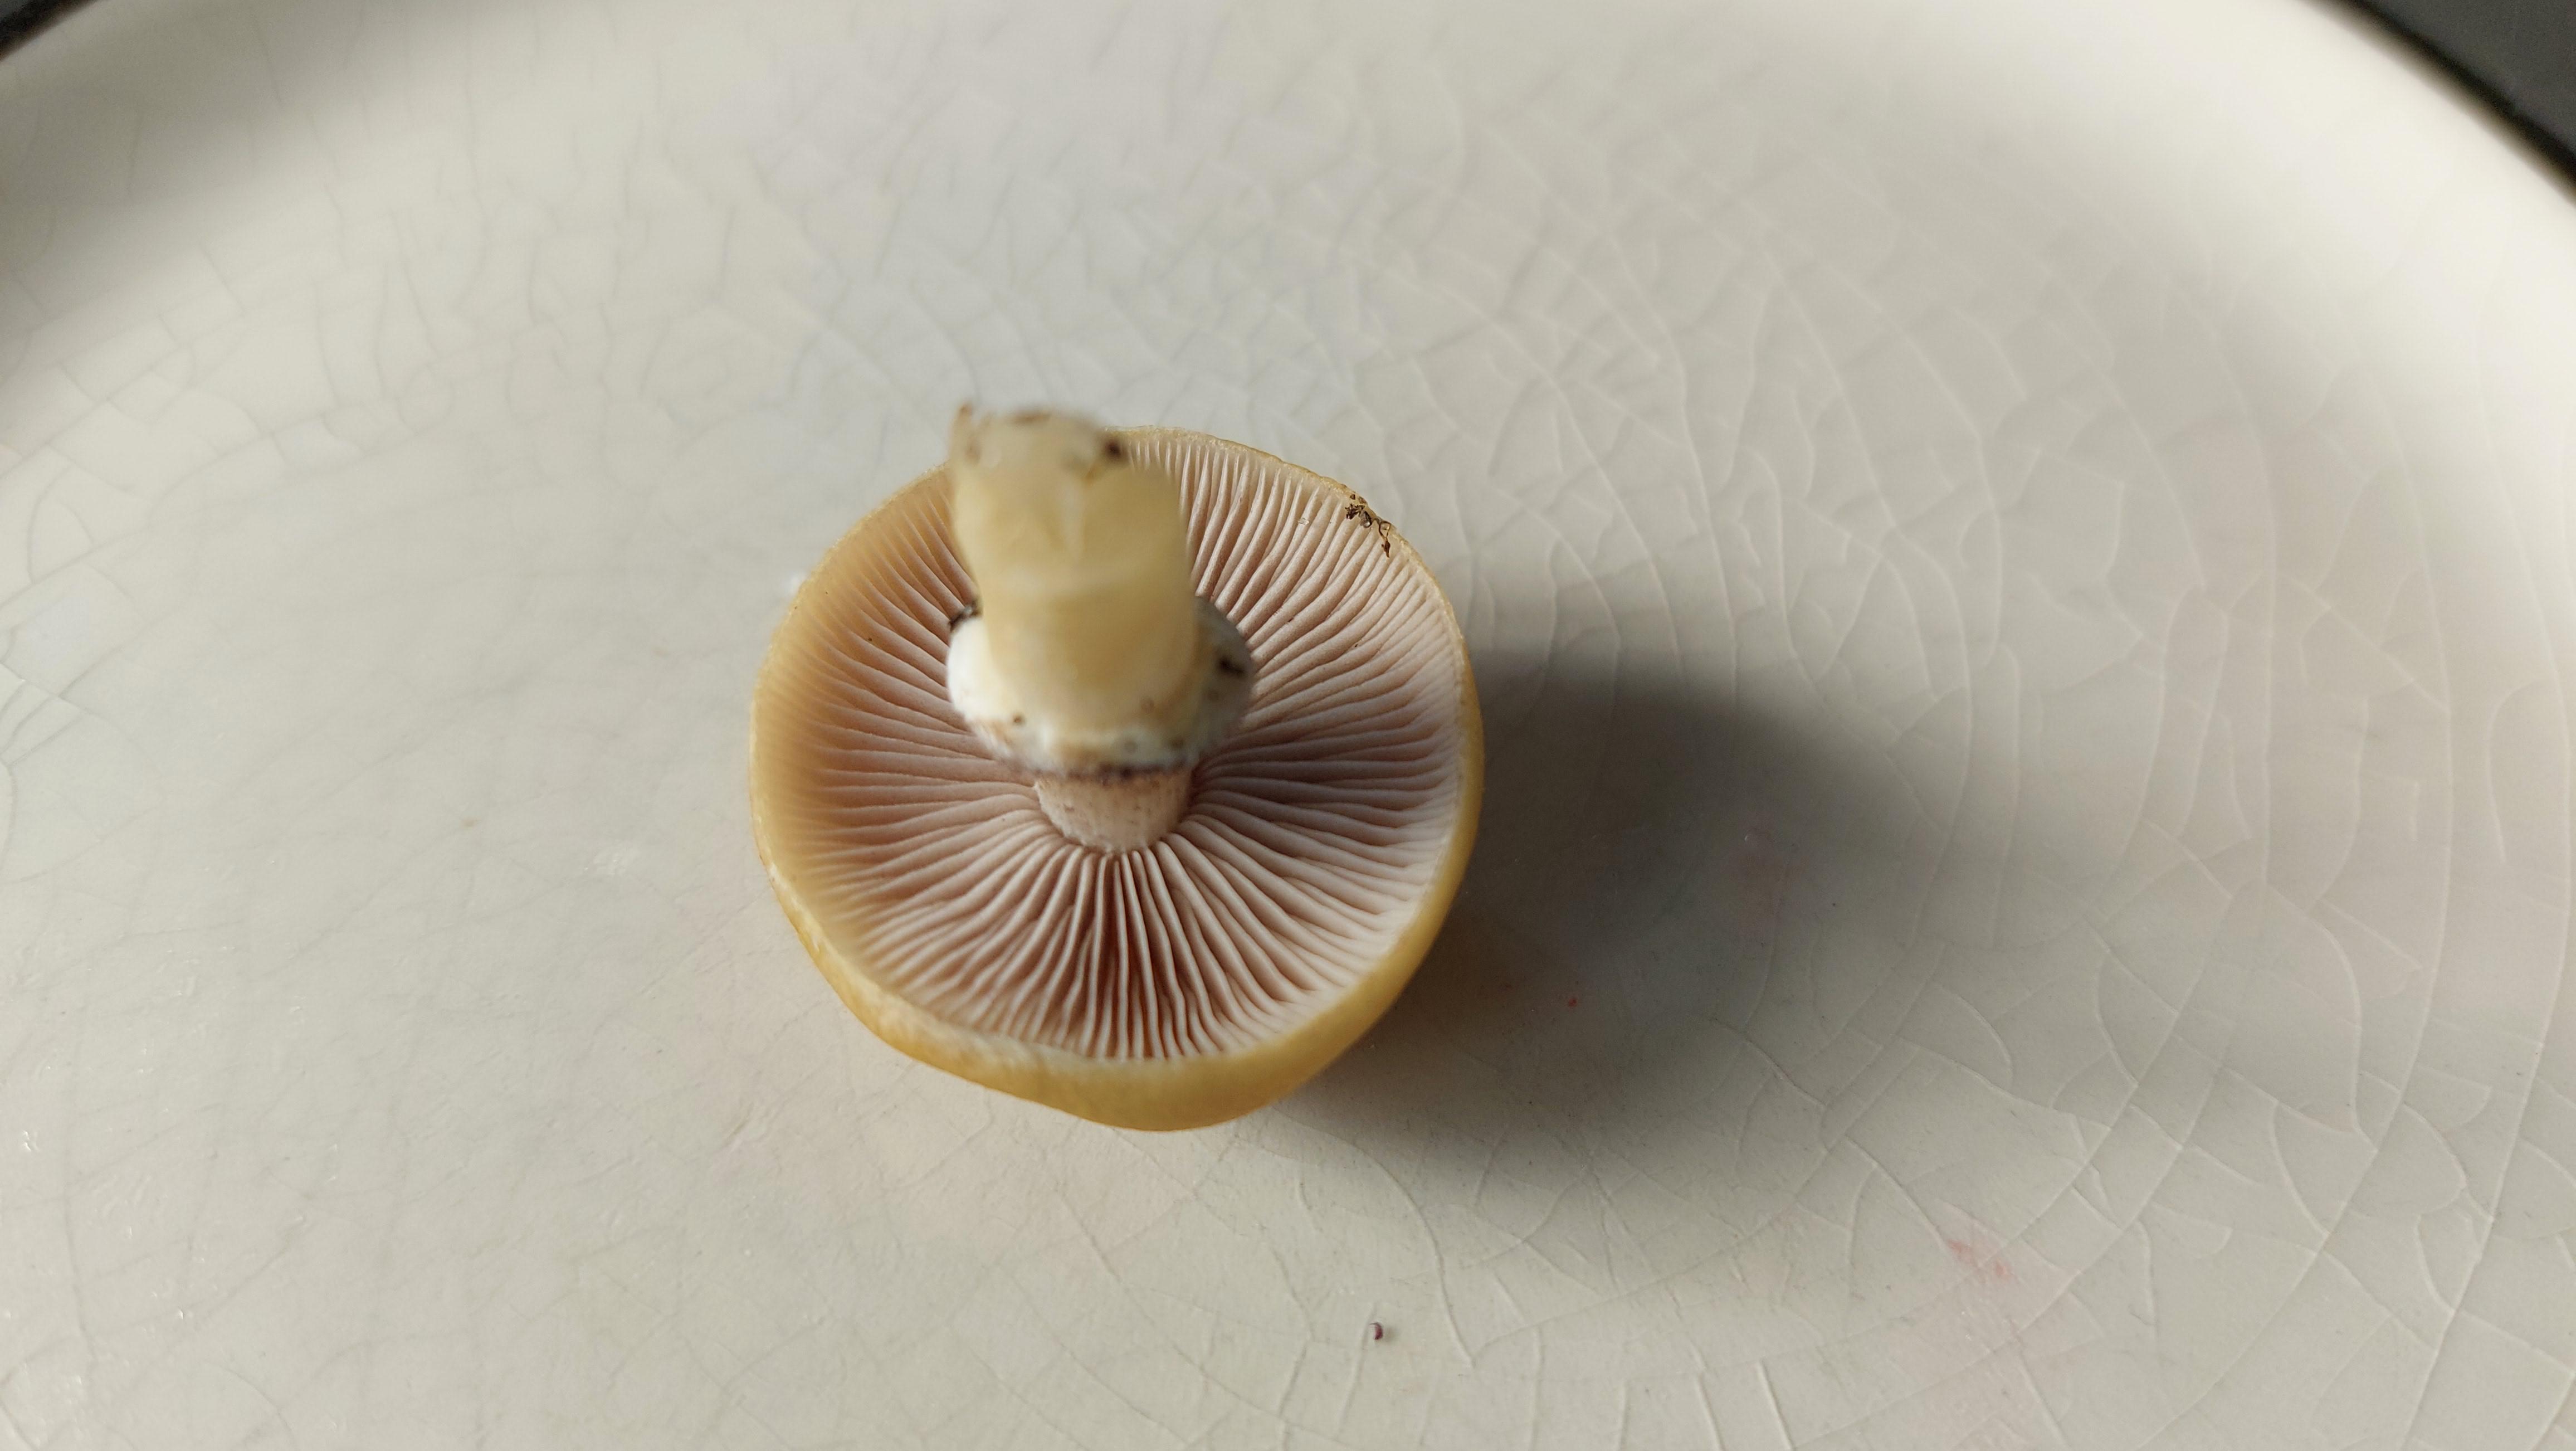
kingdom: Fungi
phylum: Basidiomycota
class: Agaricomycetes
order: Agaricales
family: Hymenogastraceae
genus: Psilocybe
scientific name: Psilocybe coronilla
